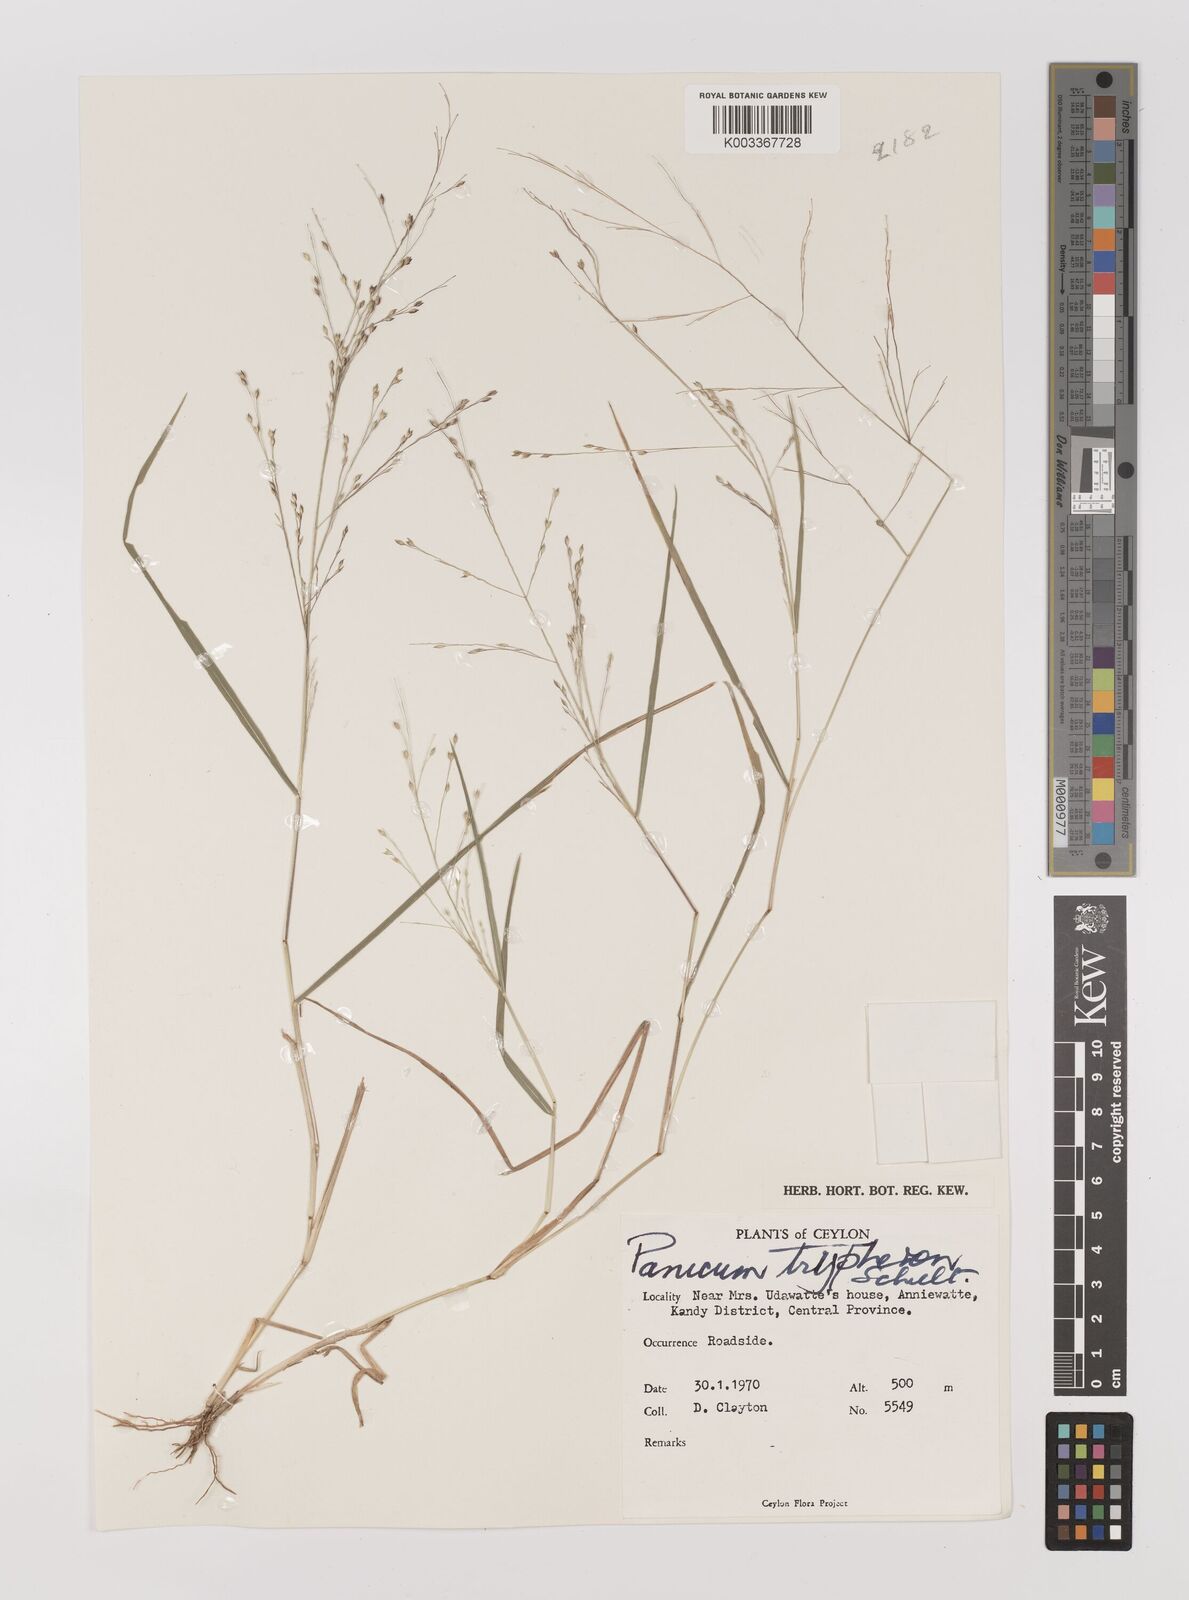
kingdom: Plantae
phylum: Tracheophyta
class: Liliopsida
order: Poales
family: Poaceae
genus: Panicum
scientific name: Panicum curviflorum
